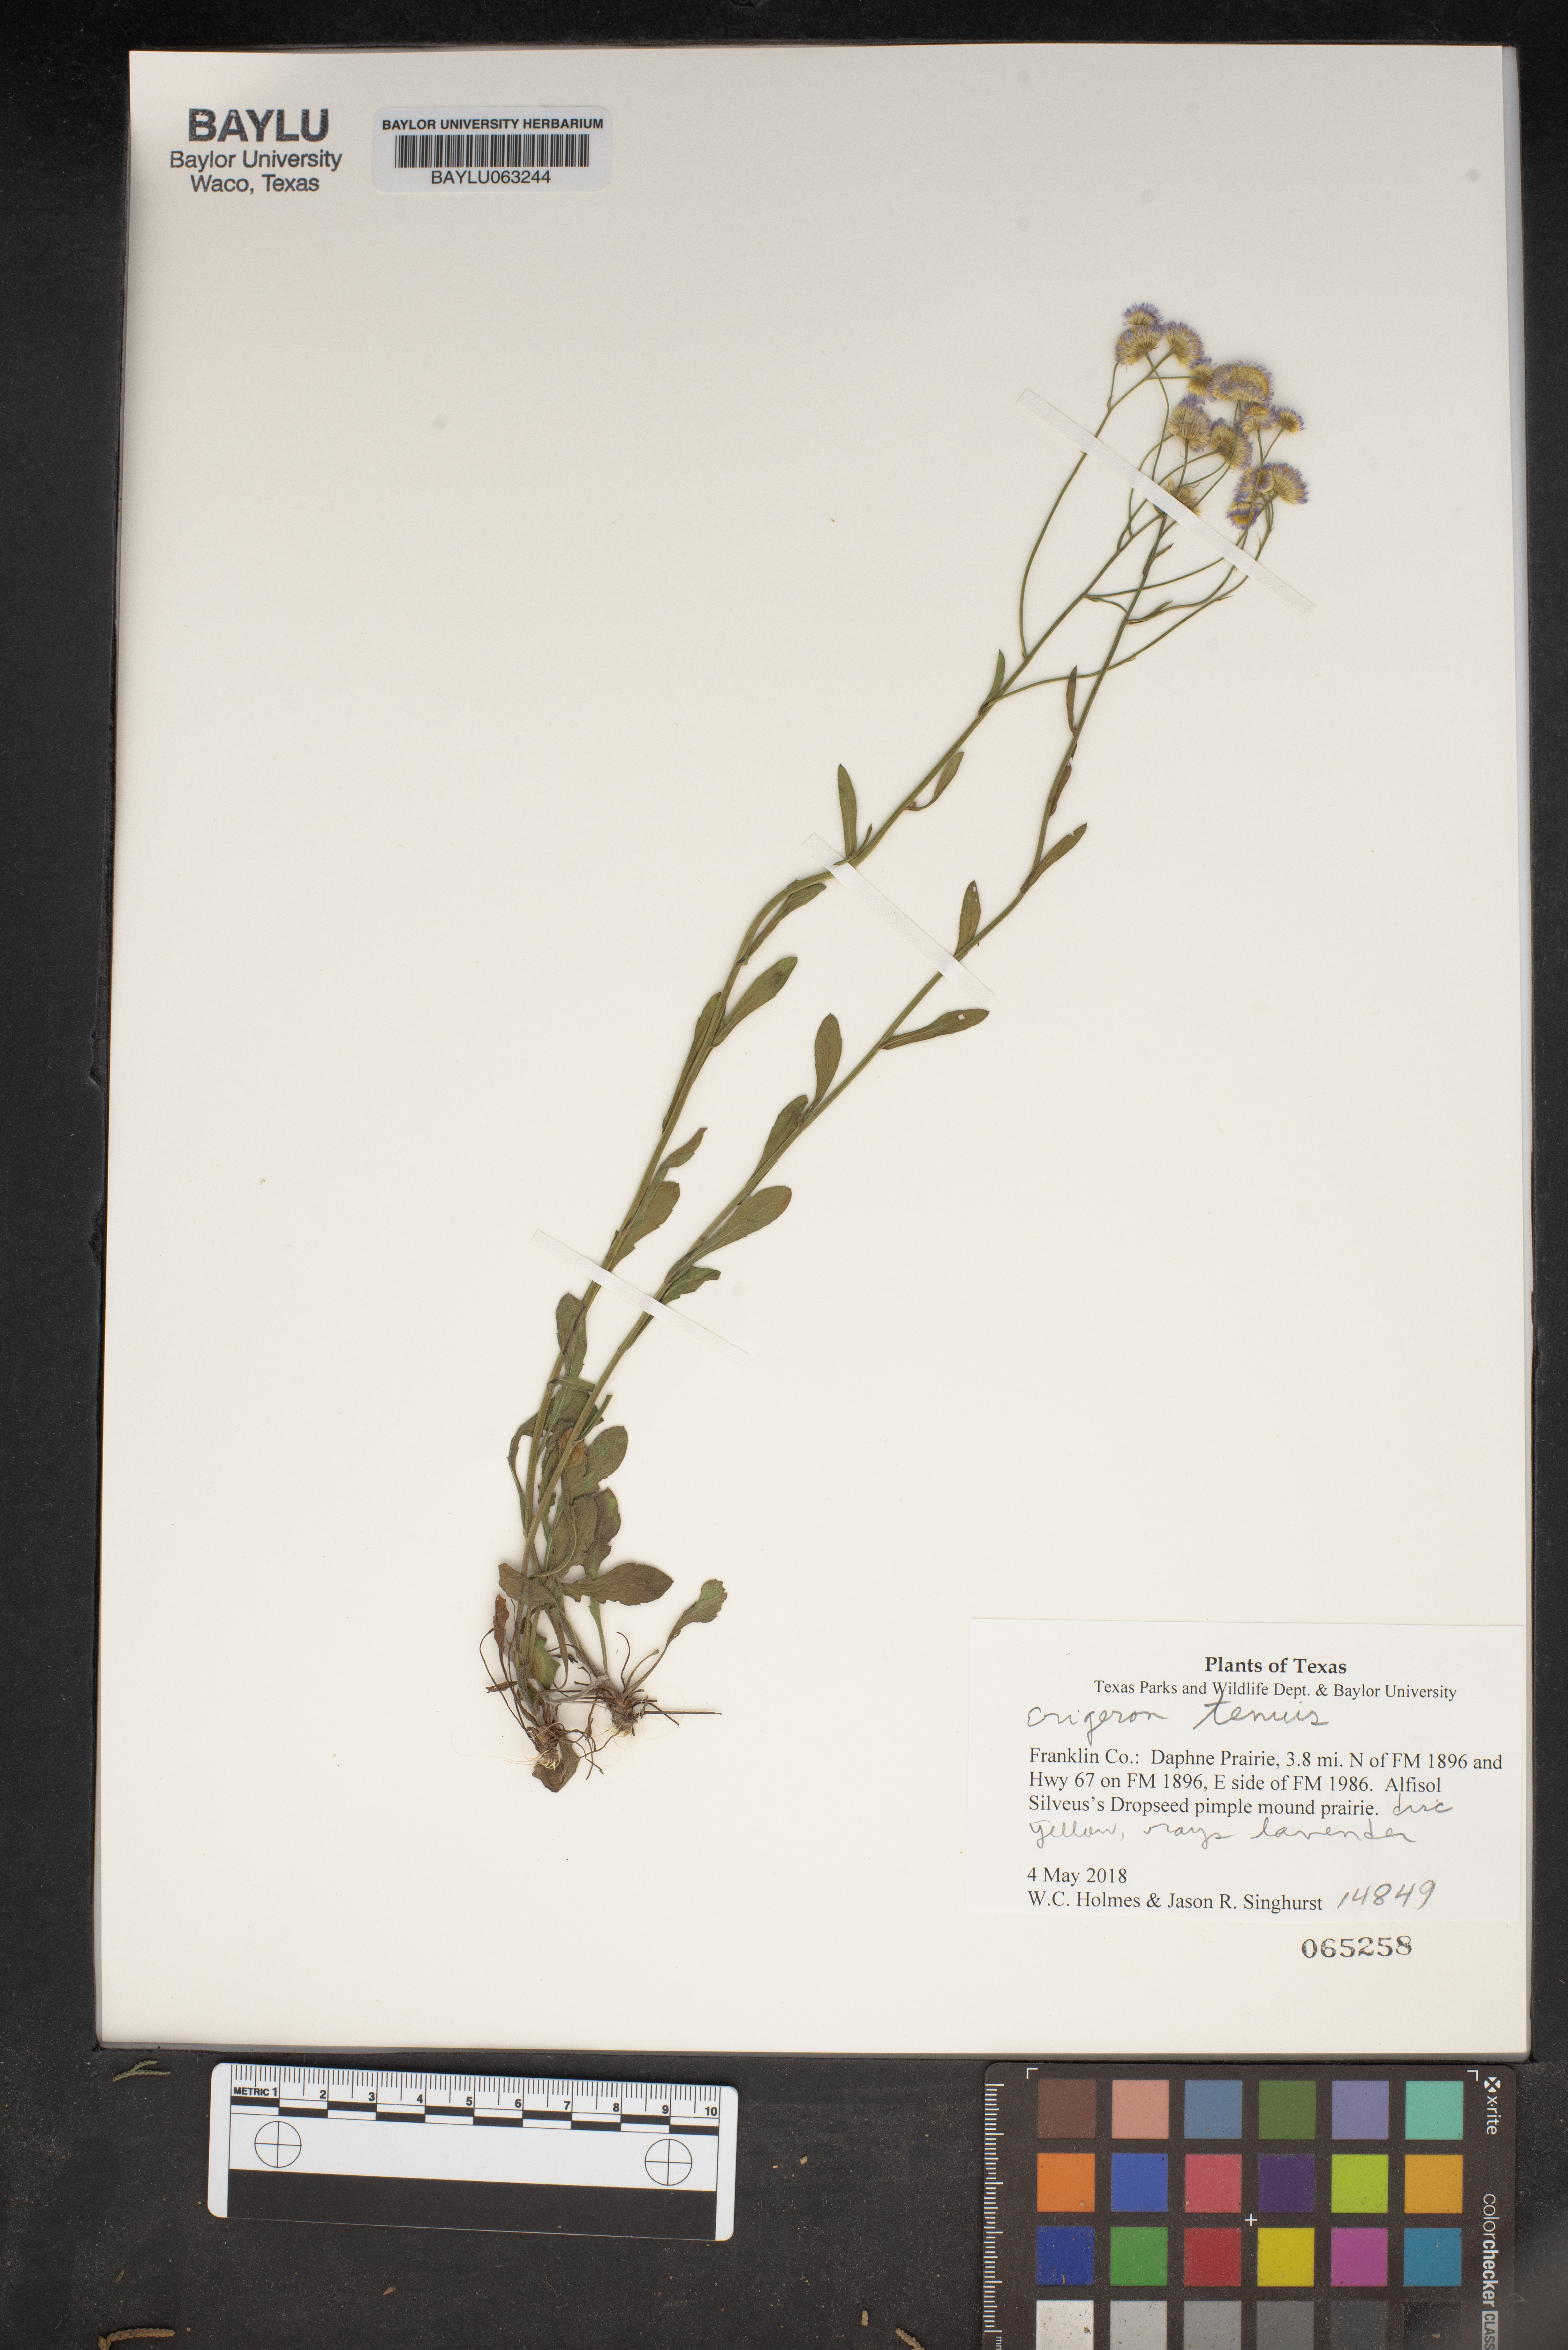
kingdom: Plantae
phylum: Tracheophyta
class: Magnoliopsida
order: Asterales
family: Asteraceae
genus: Erigeron
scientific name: Erigeron tenuis
